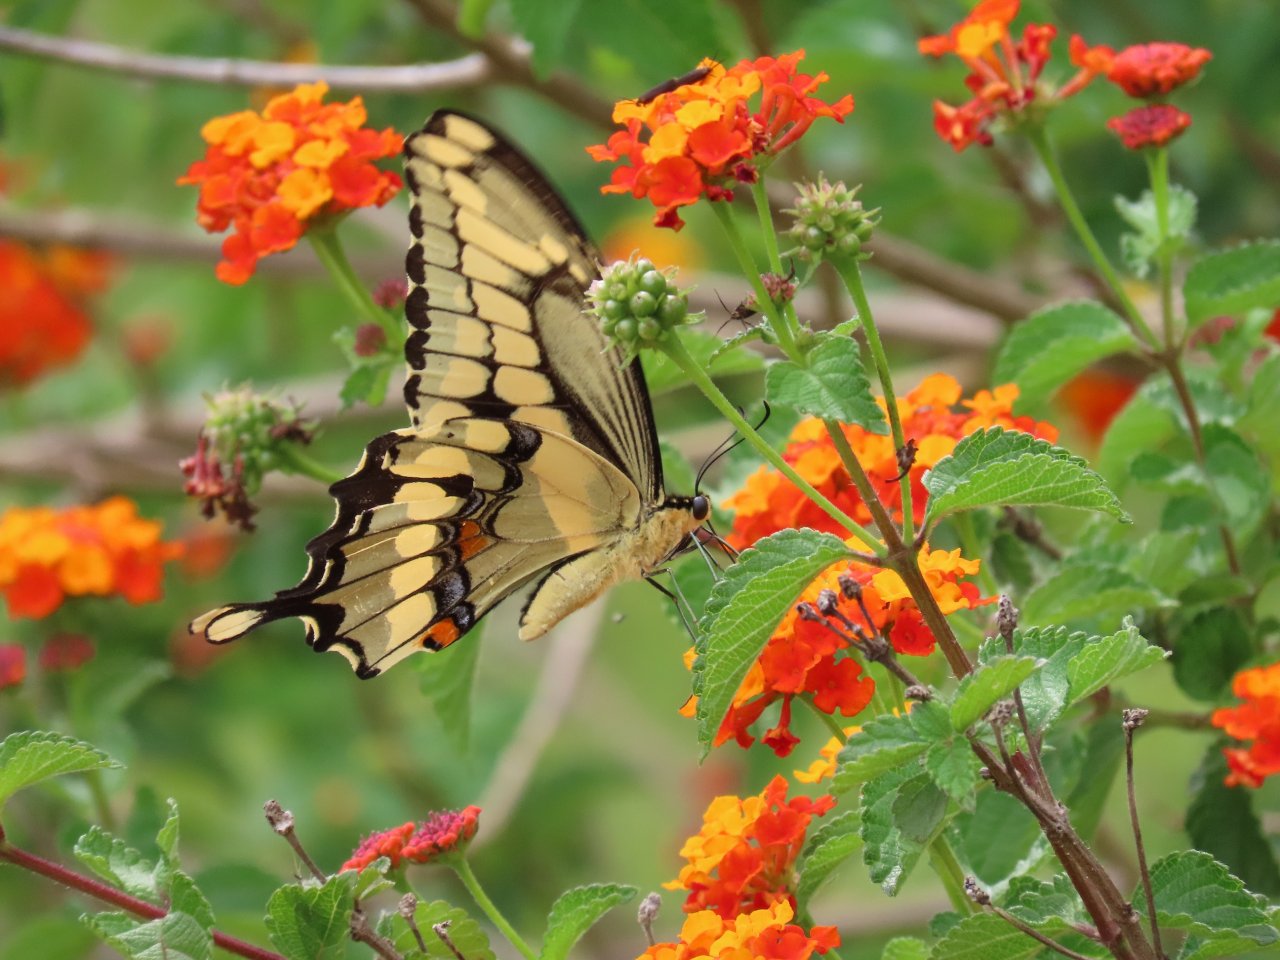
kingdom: Animalia
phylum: Arthropoda
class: Insecta
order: Lepidoptera
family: Papilionidae
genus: Papilio
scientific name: Papilio cresphontes
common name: Eastern Giant Swallowtail
